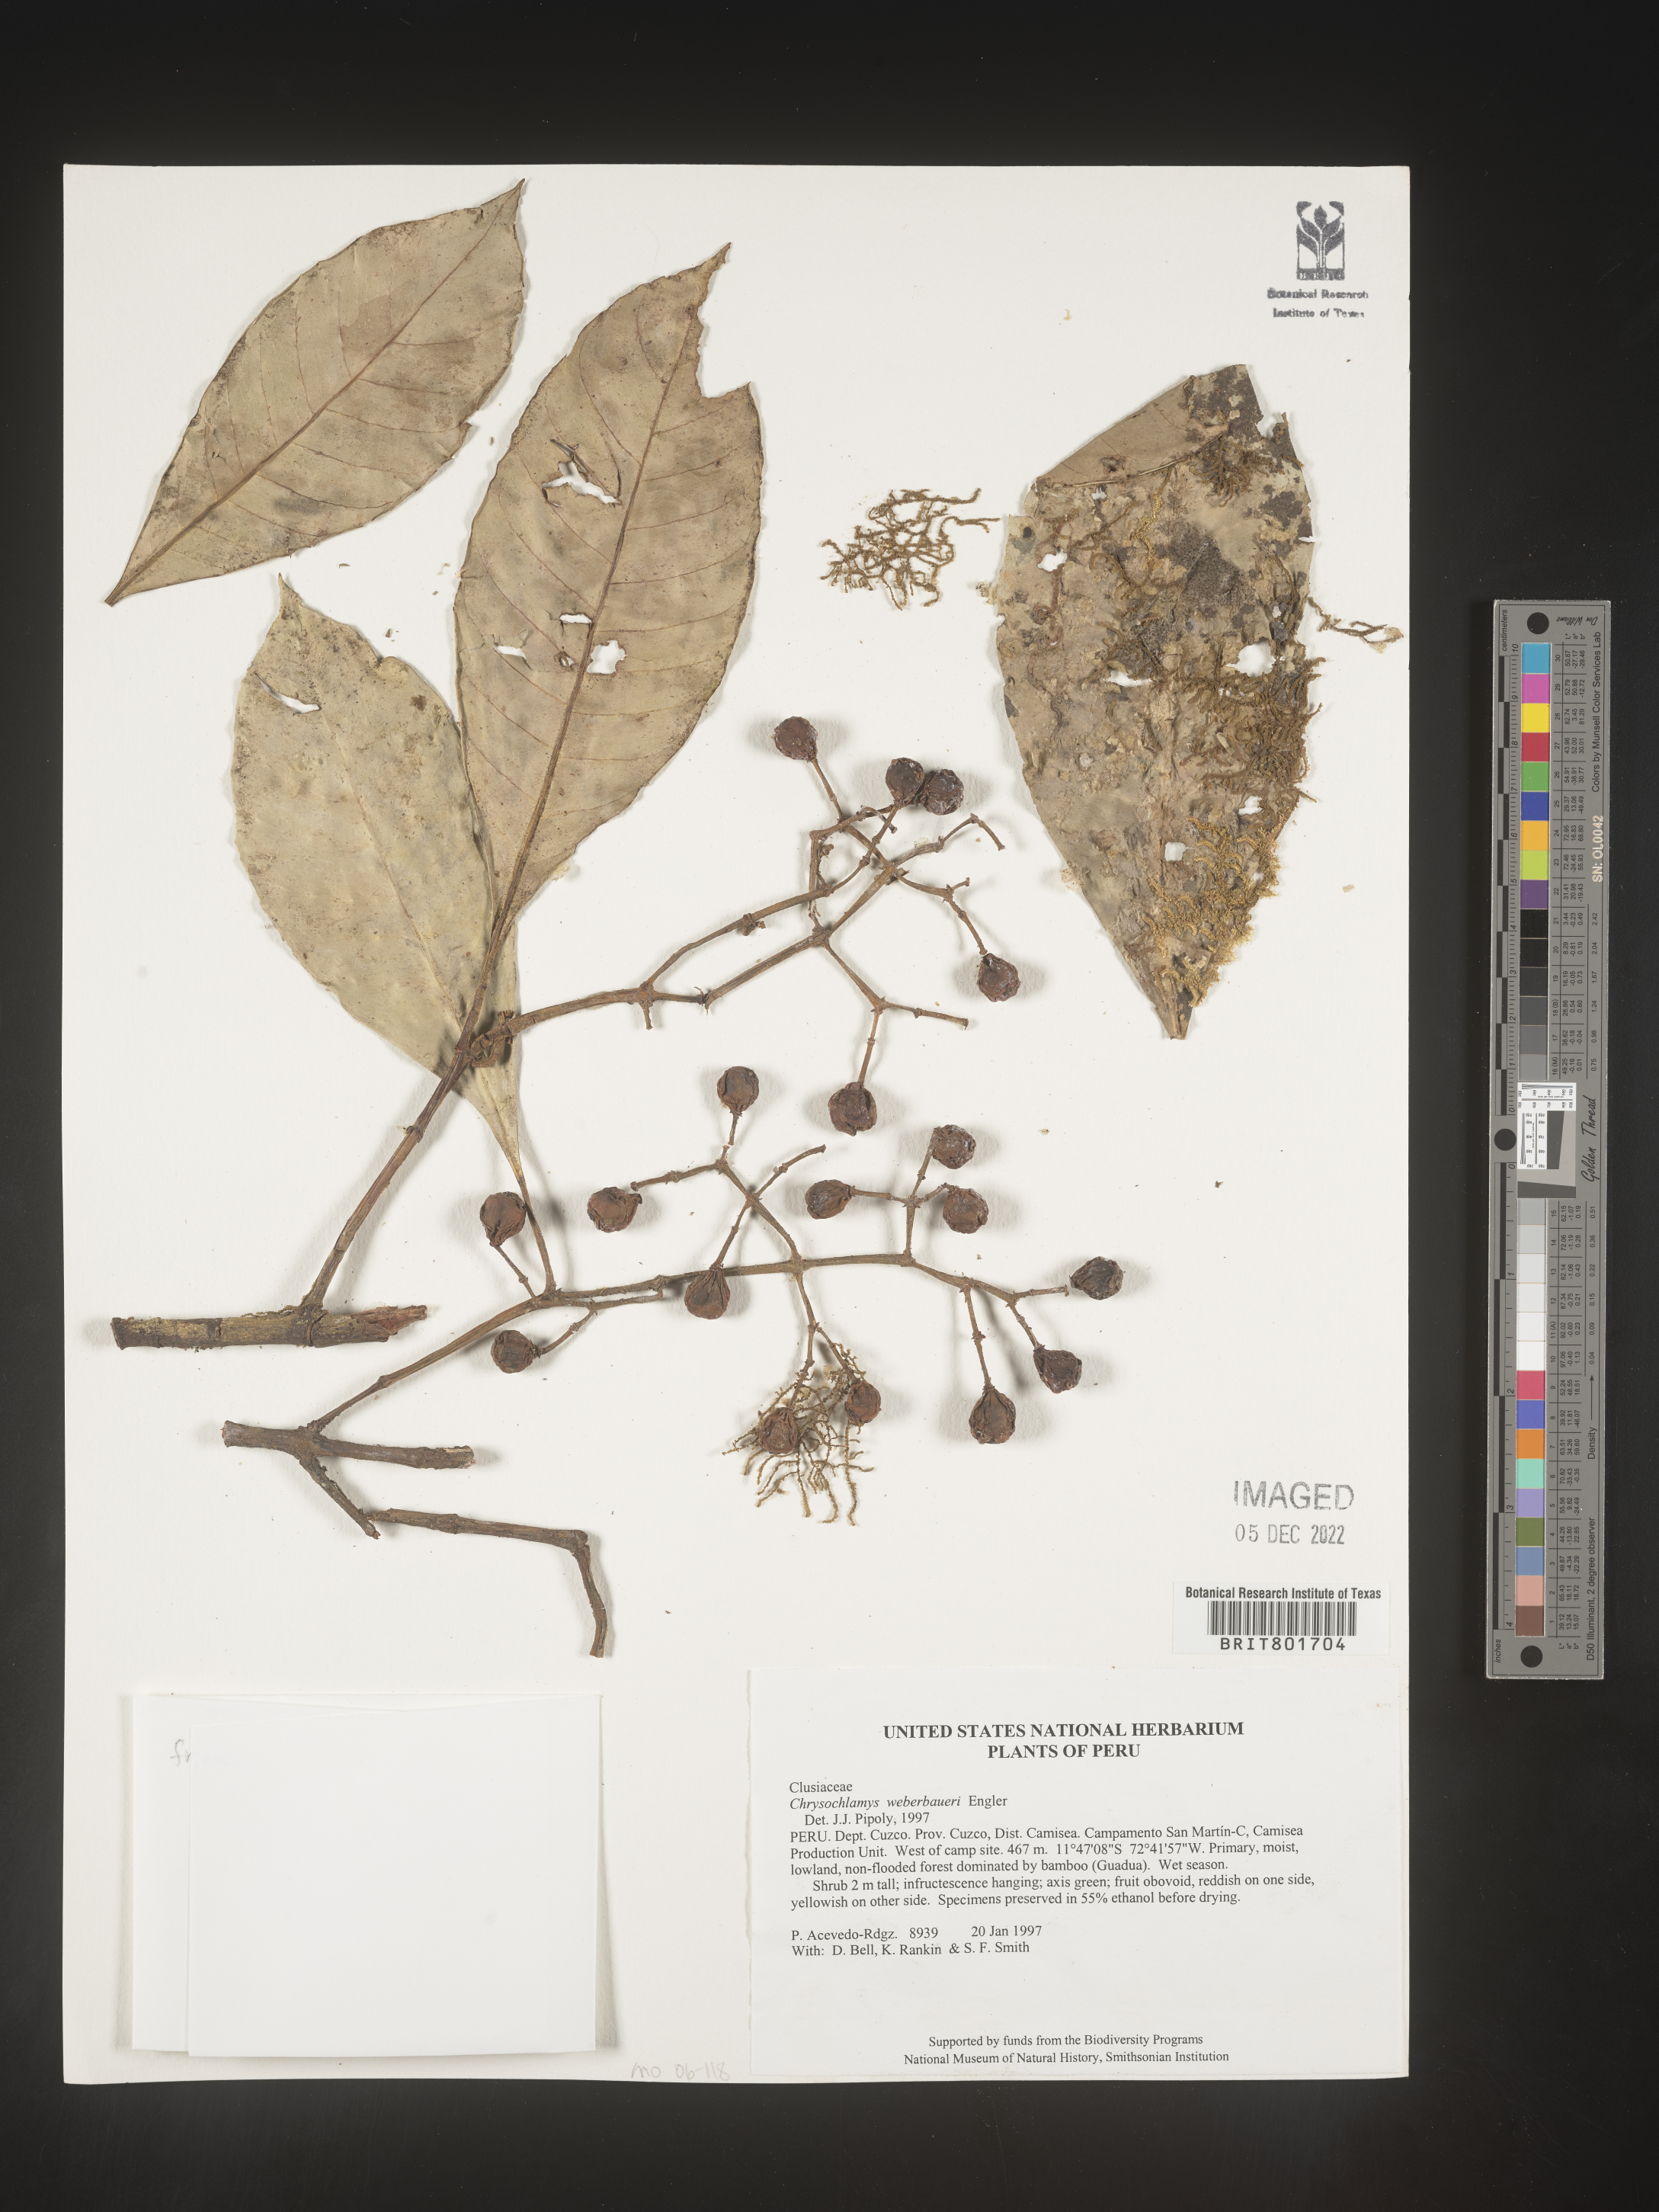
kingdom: Plantae
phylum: Tracheophyta
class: Magnoliopsida
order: Malpighiales
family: Clusiaceae
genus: Chrysochlamys
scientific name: Chrysochlamys
